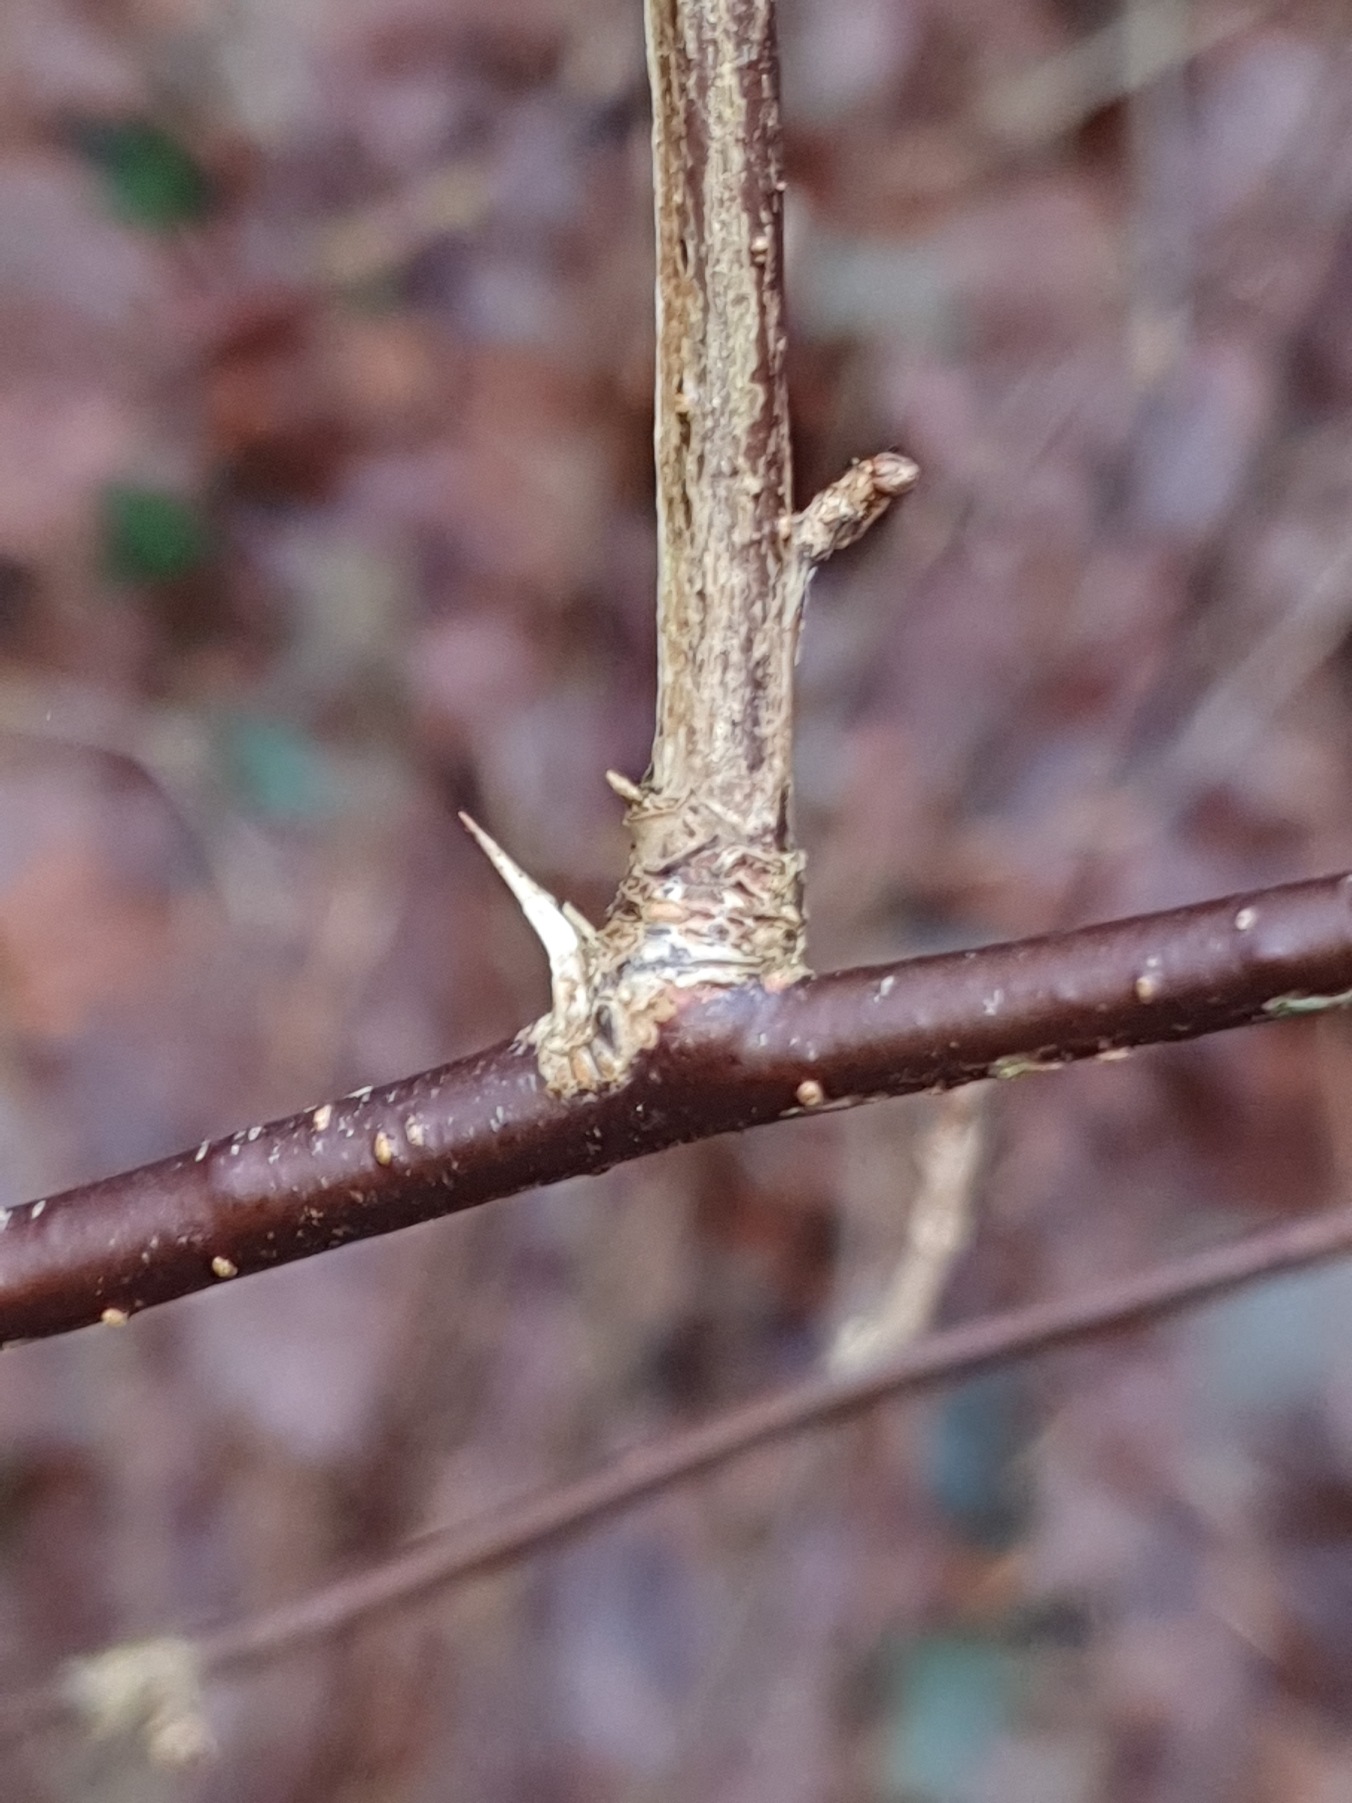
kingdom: Plantae
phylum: Tracheophyta
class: Magnoliopsida
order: Saxifragales
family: Grossulariaceae
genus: Ribes
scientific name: Ribes uva-crispa
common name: Stikkelsbær
